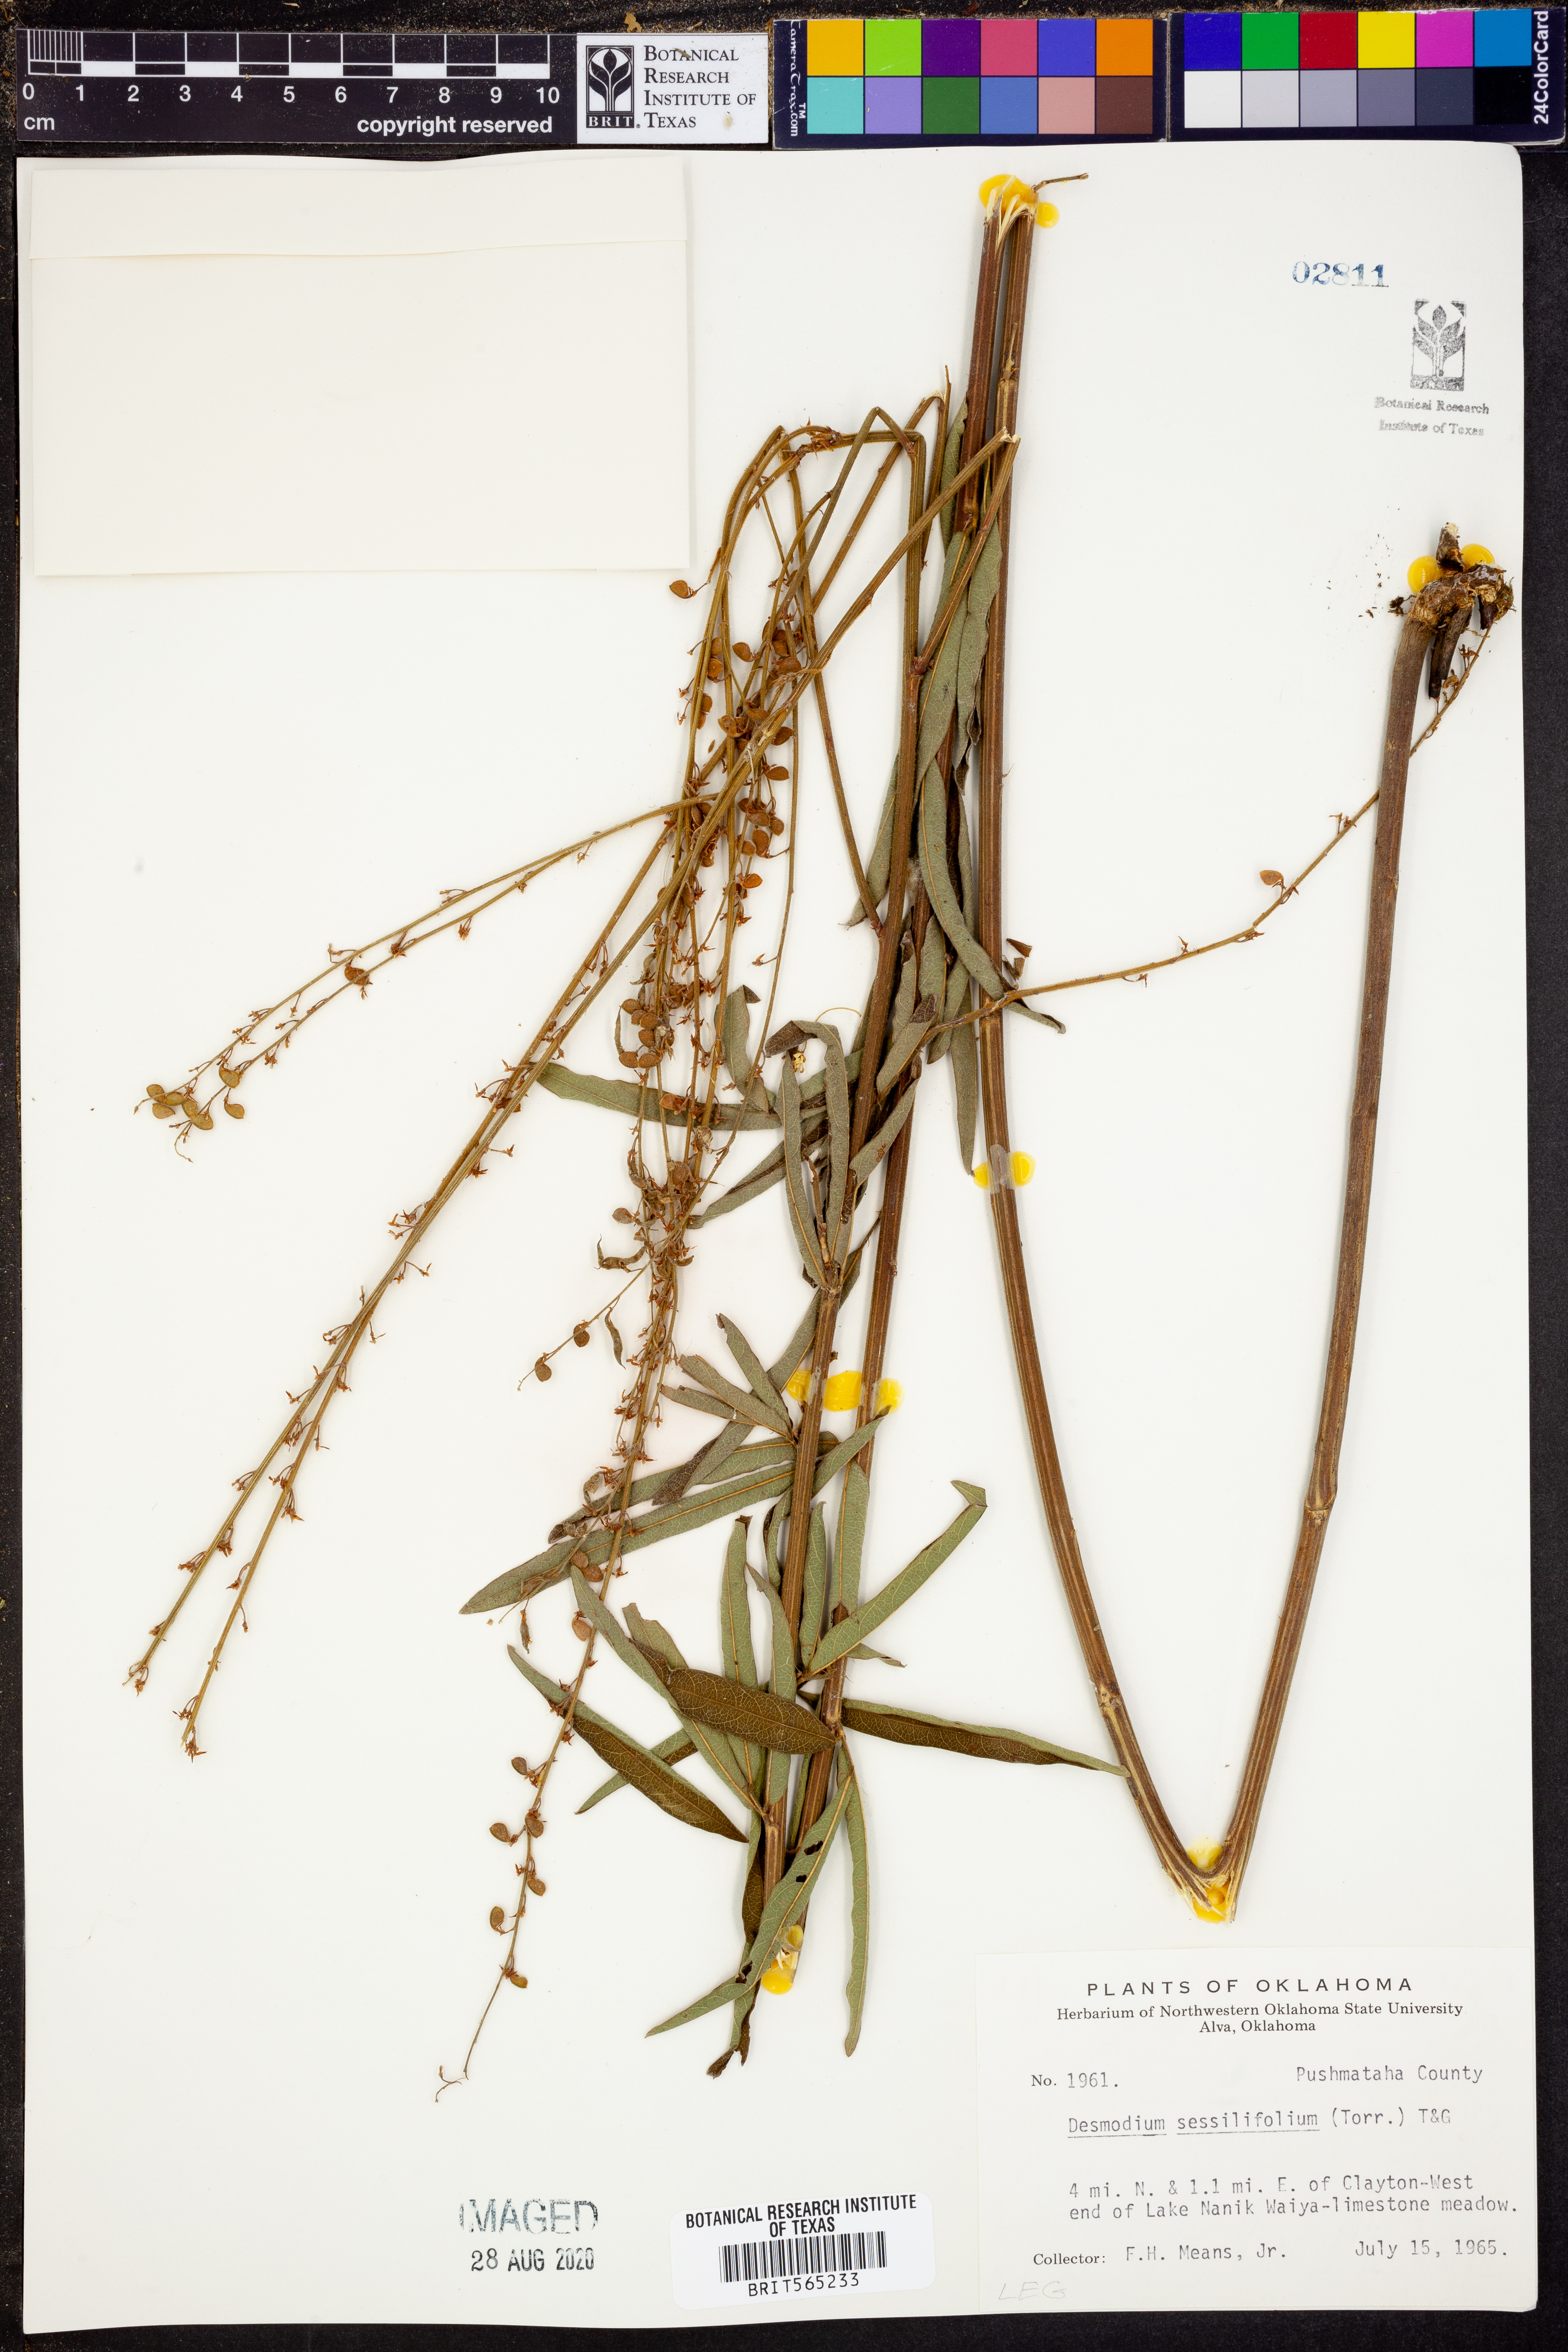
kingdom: Plantae
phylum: Tracheophyta
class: Magnoliopsida
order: Fabales
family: Fabaceae
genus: Desmodium
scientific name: Desmodium sessilifolium
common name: Sessile tick-clover
